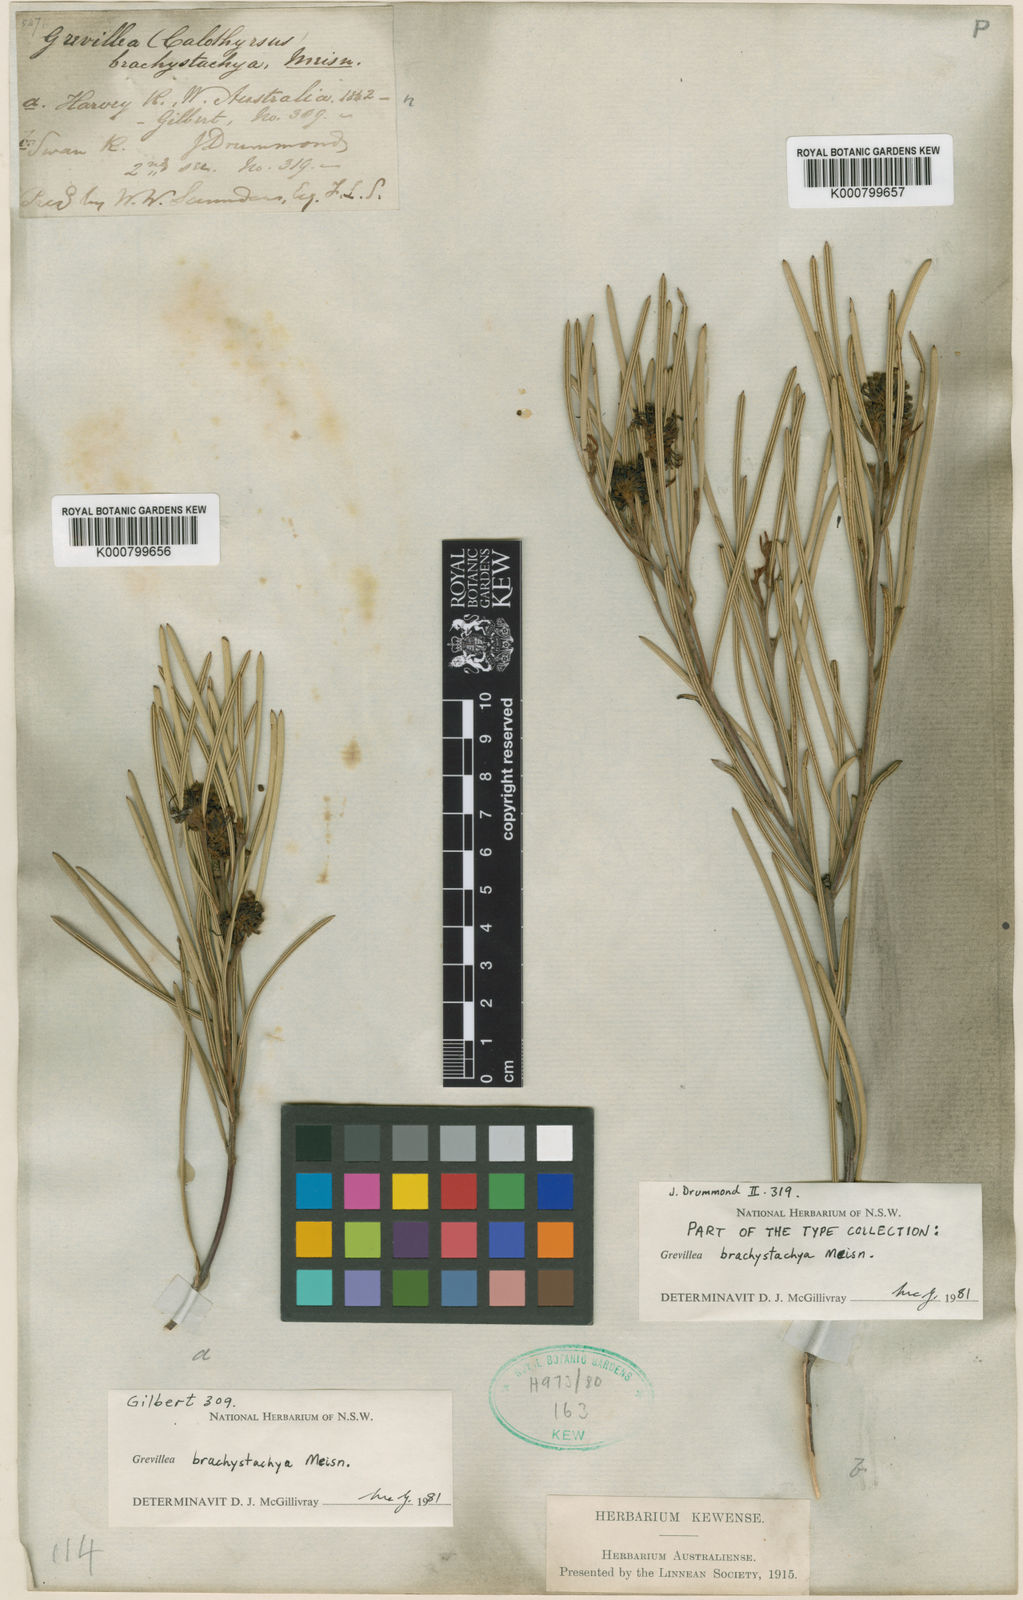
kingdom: Plantae
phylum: Tracheophyta
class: Magnoliopsida
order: Proteales
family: Proteaceae
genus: Grevillea
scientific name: Grevillea brachystachya
